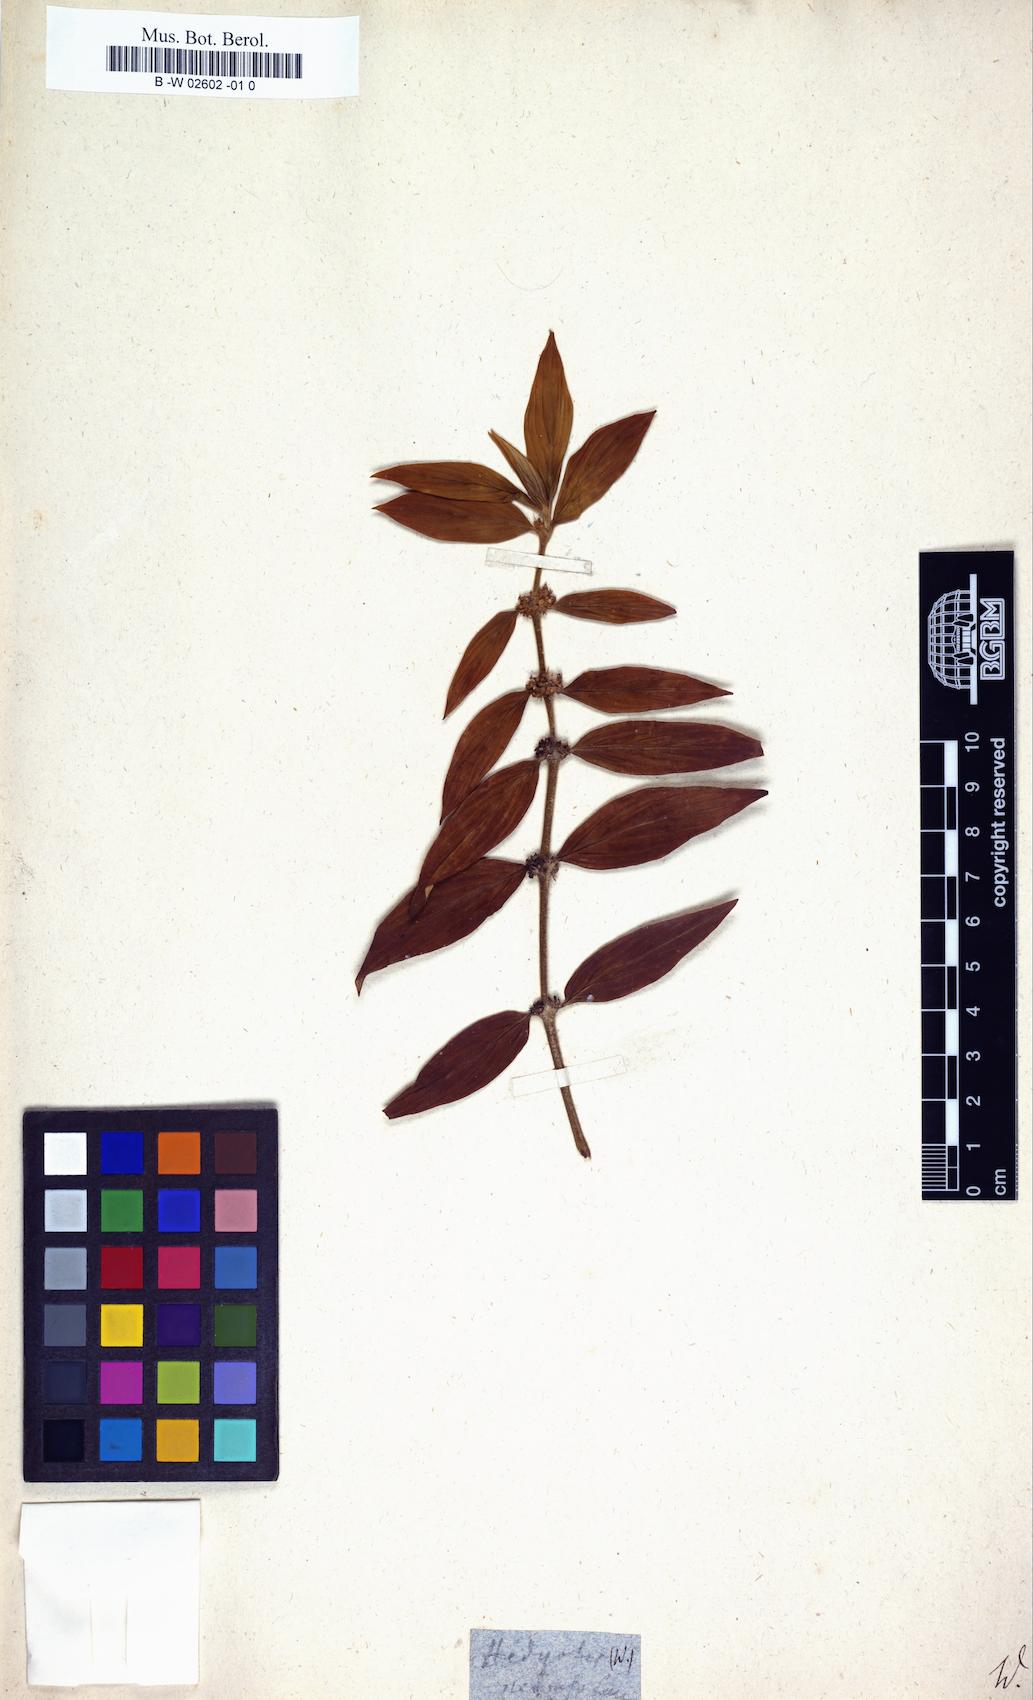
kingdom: Plantae
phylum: Tracheophyta
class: Magnoliopsida
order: Gentianales
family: Rubiaceae
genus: Exallage
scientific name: Exallage auricularia
